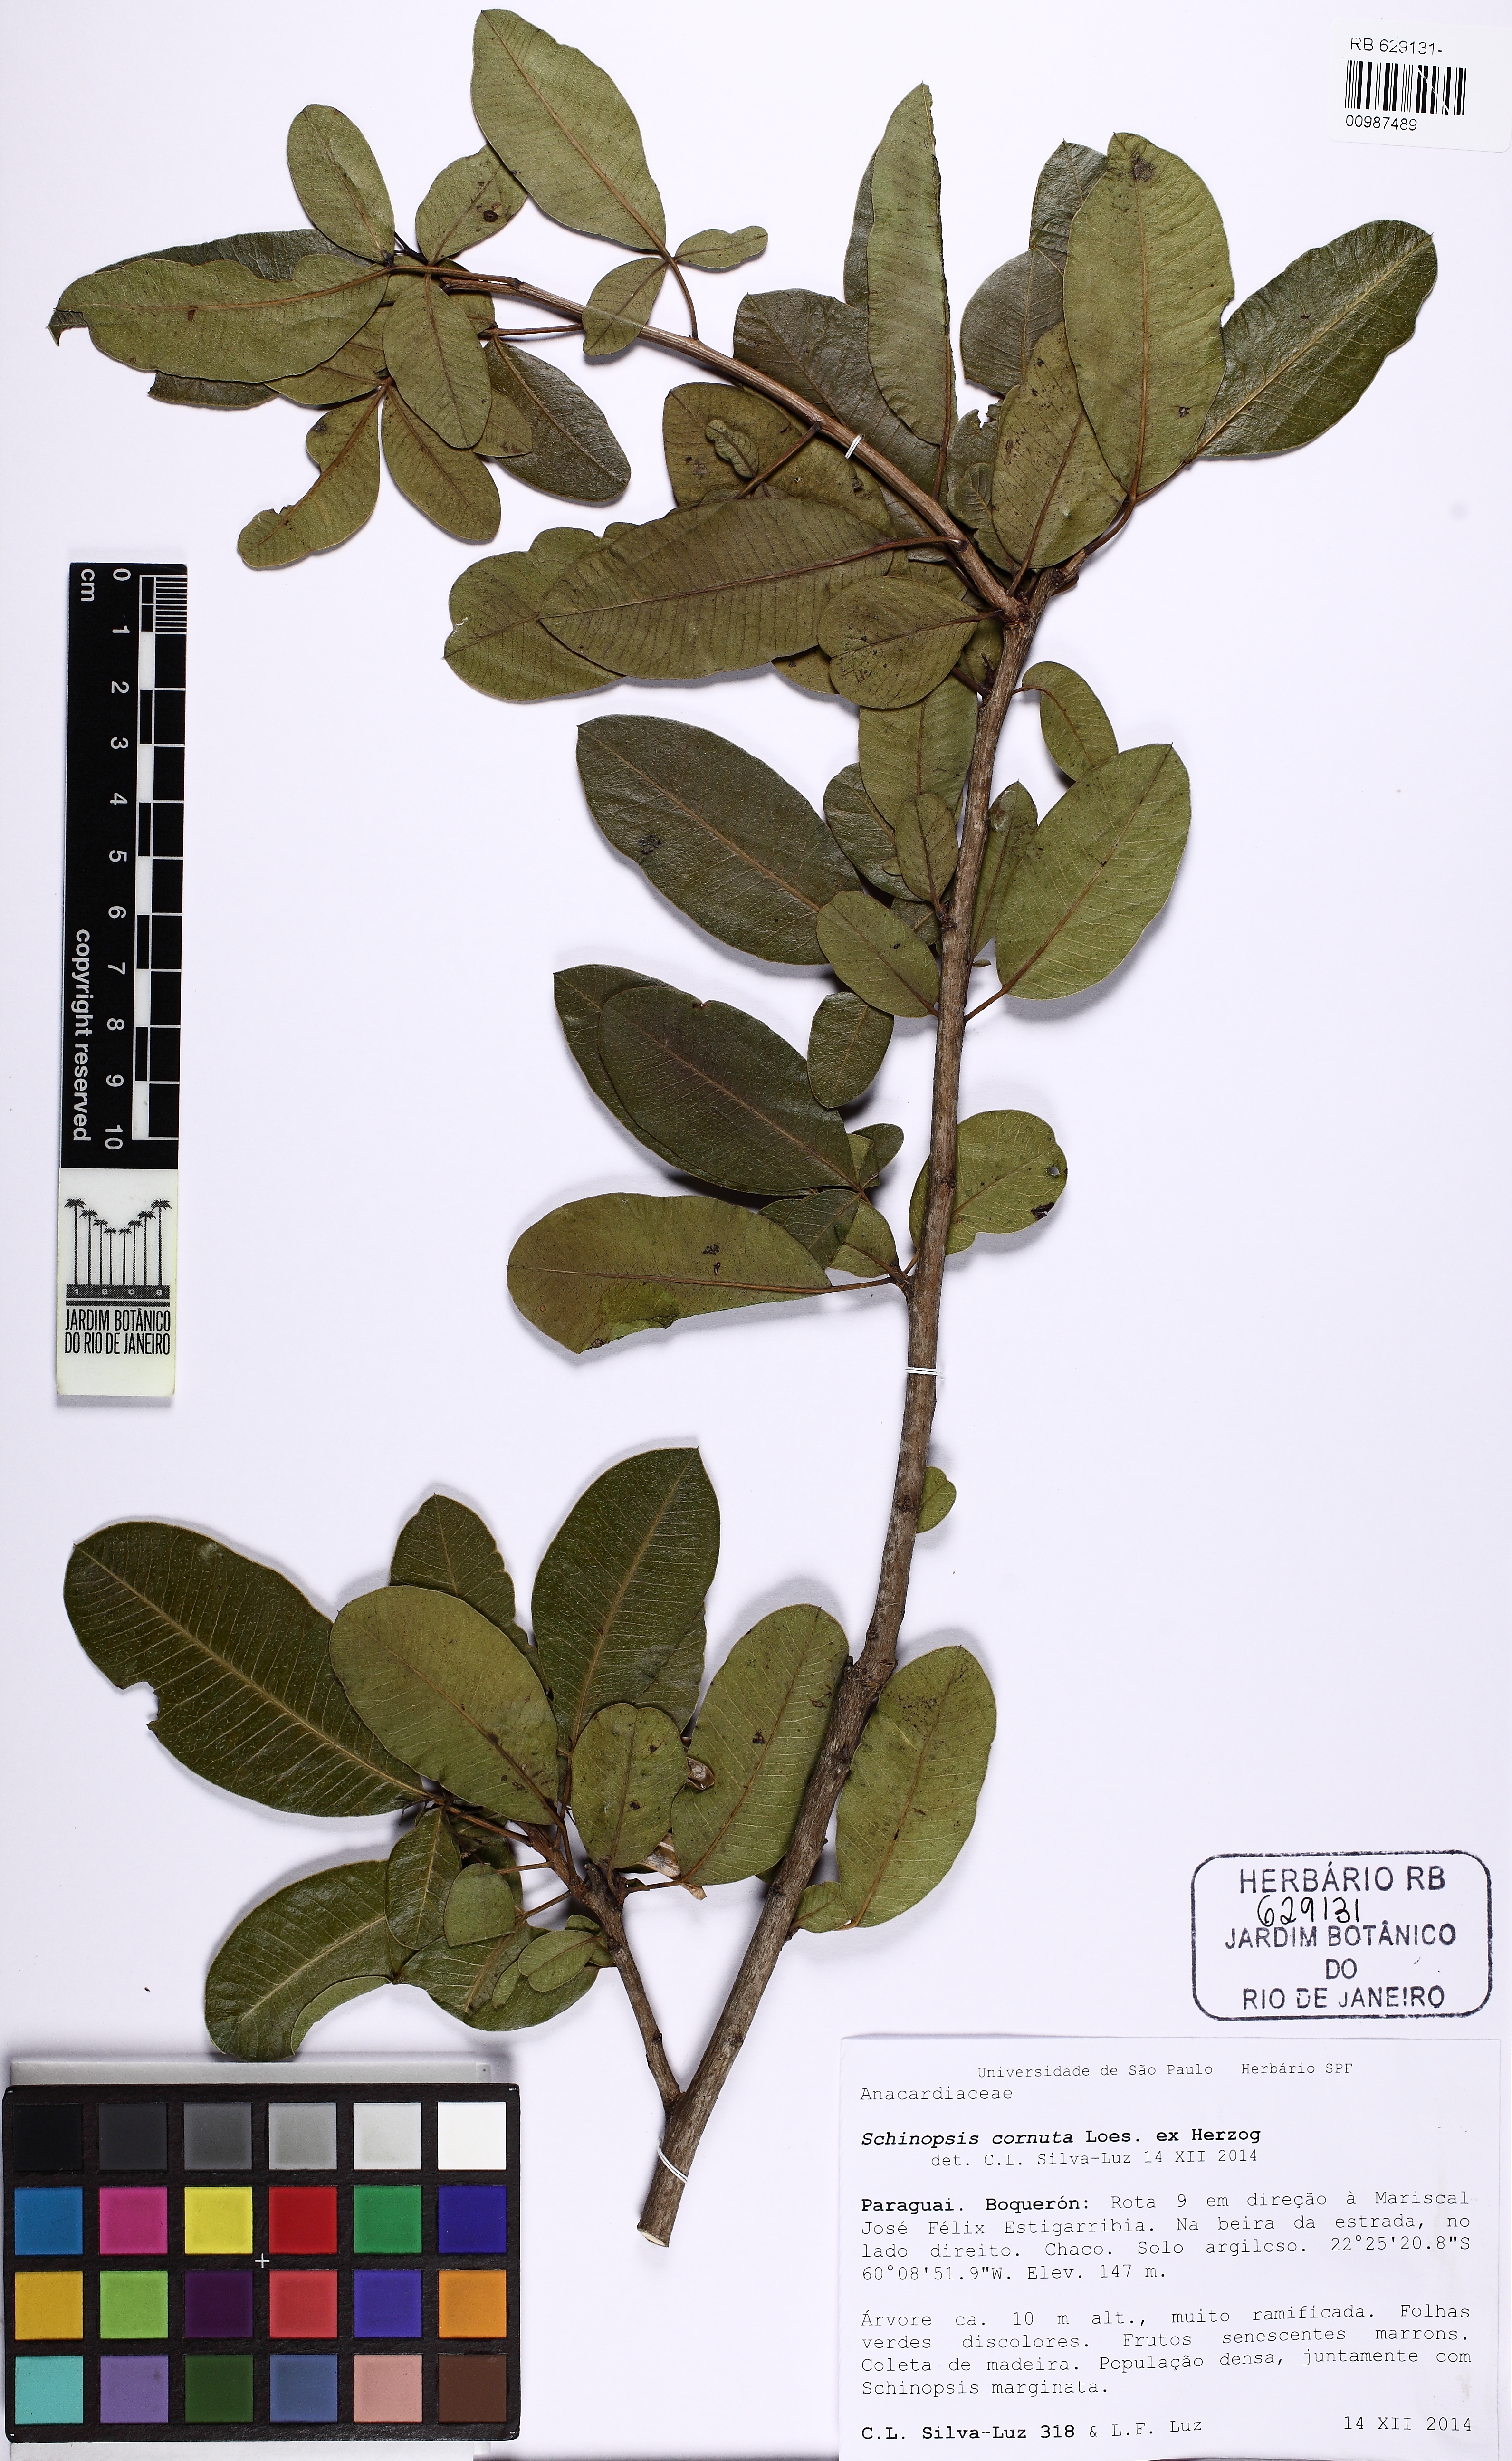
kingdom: Plantae
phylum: Tracheophyta
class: Magnoliopsida
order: Sapindales
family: Anacardiaceae
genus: Schinopsis
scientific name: Schinopsis cornuta
